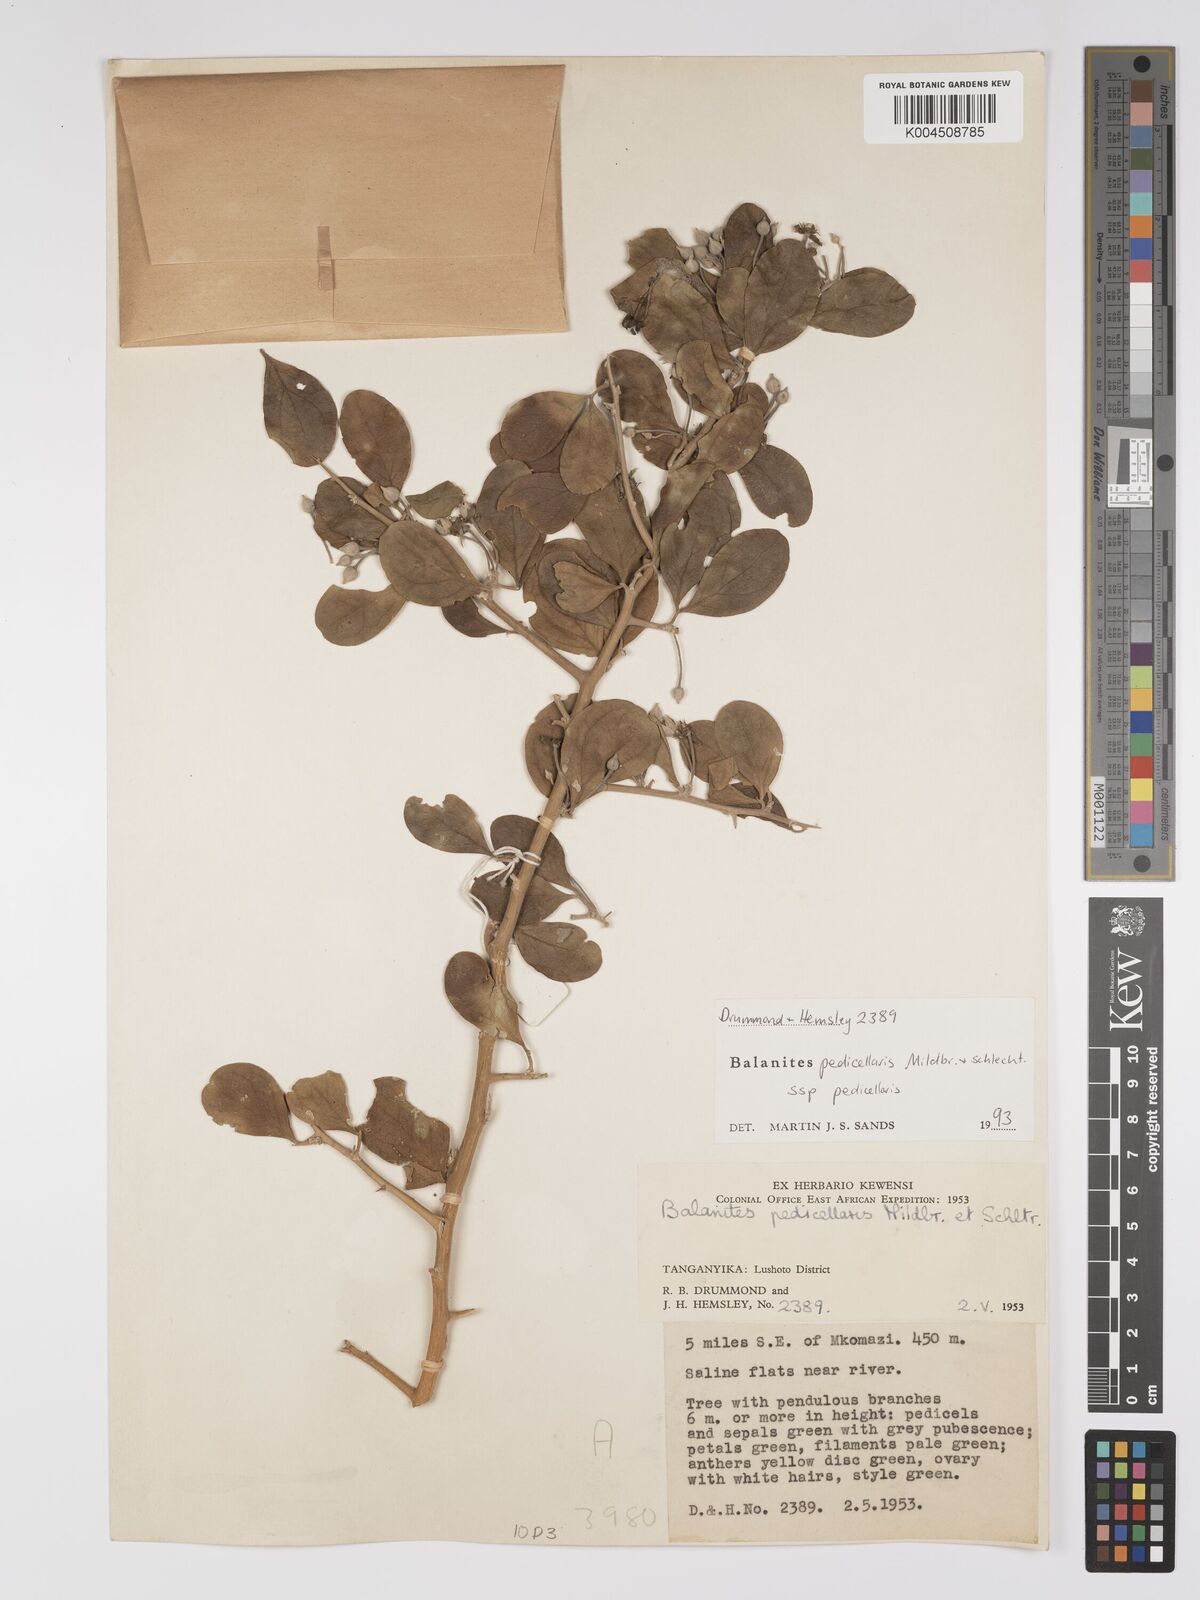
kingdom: Plantae
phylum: Tracheophyta
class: Magnoliopsida
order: Zygophyllales
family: Zygophyllaceae
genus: Balanites
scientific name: Balanites pedicellaris
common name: Small green-thorn
